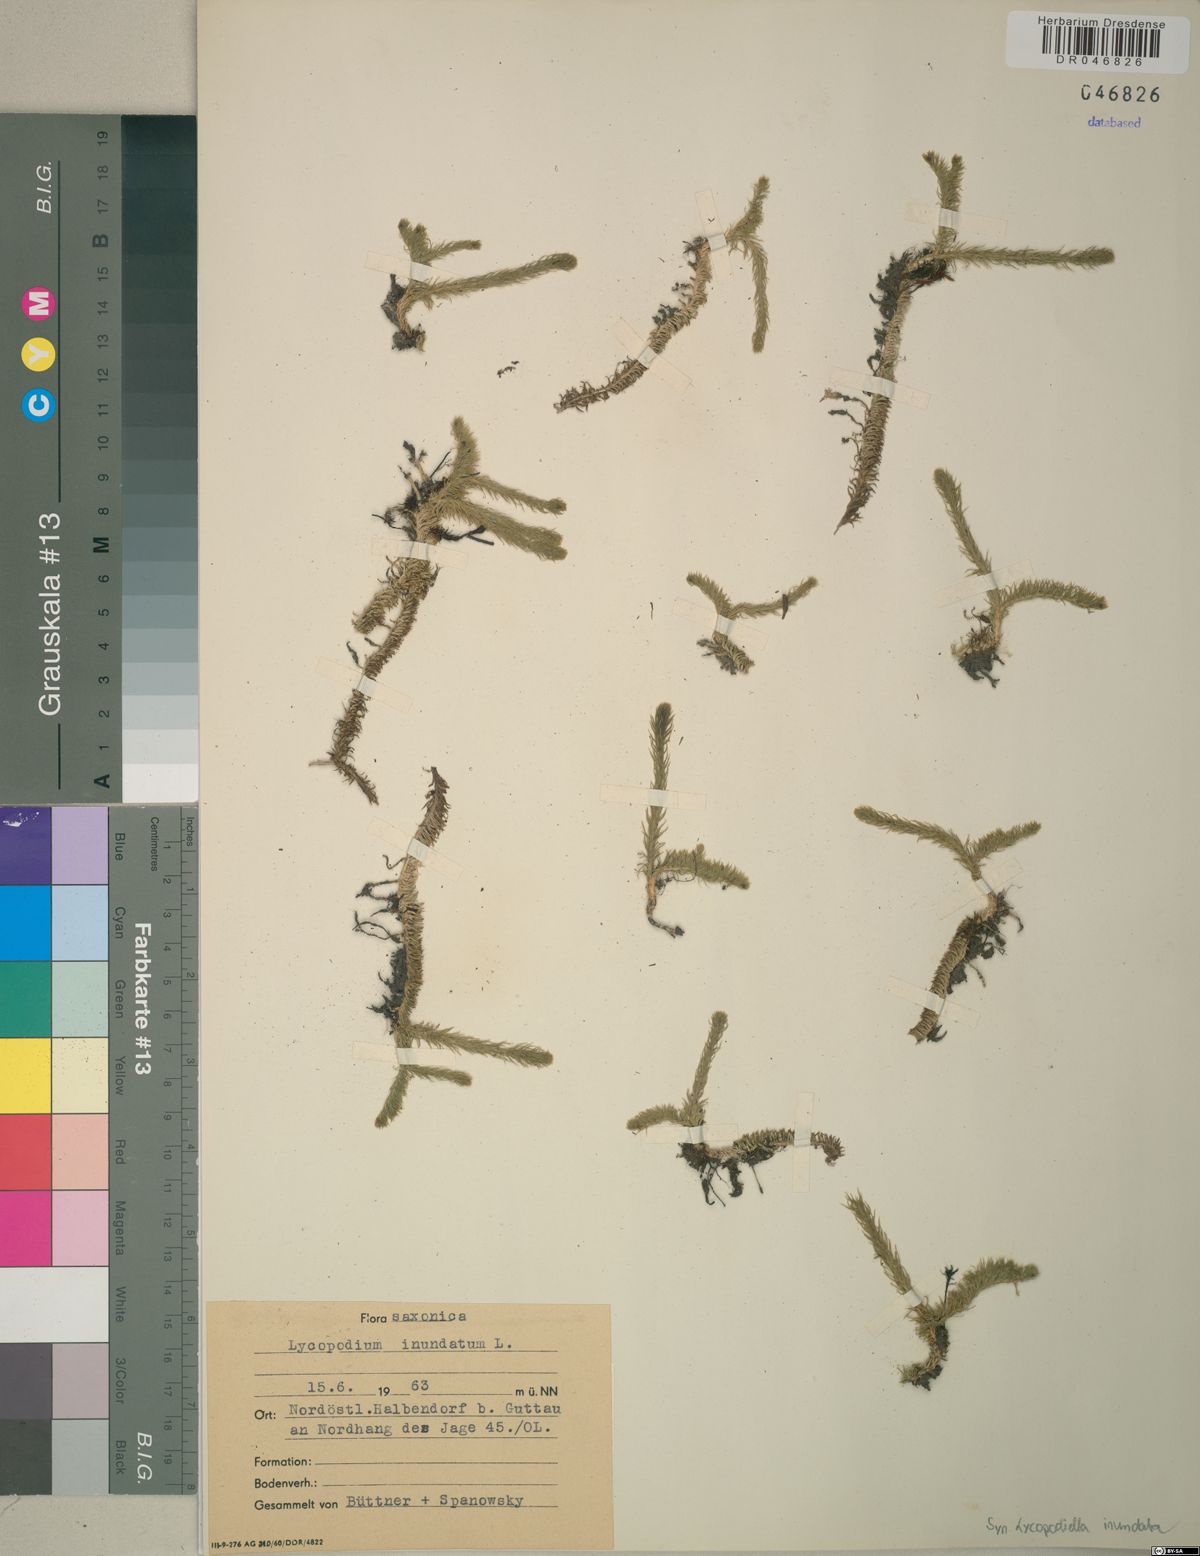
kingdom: Plantae
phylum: Tracheophyta
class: Lycopodiopsida
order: Lycopodiales
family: Lycopodiaceae
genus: Lycopodiella
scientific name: Lycopodiella inundata
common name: Marsh clubmoss
